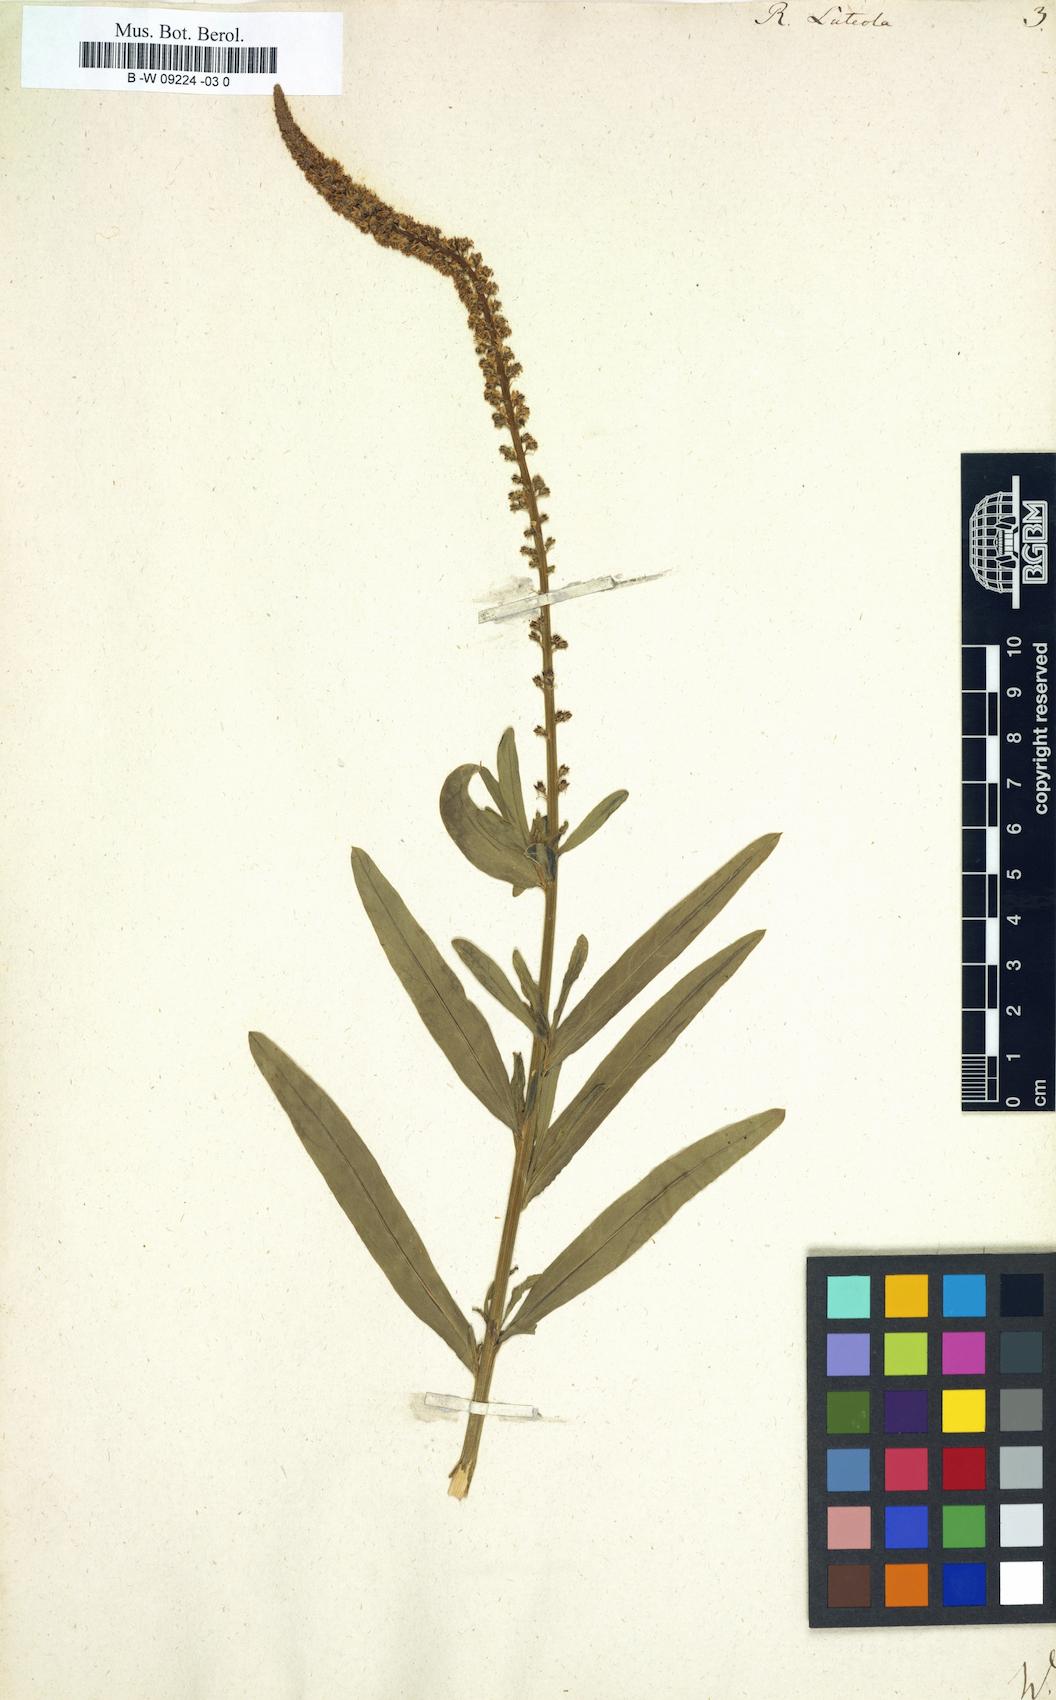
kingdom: Plantae
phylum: Tracheophyta
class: Magnoliopsida
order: Brassicales
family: Resedaceae
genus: Reseda
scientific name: Reseda luteola
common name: Weld
